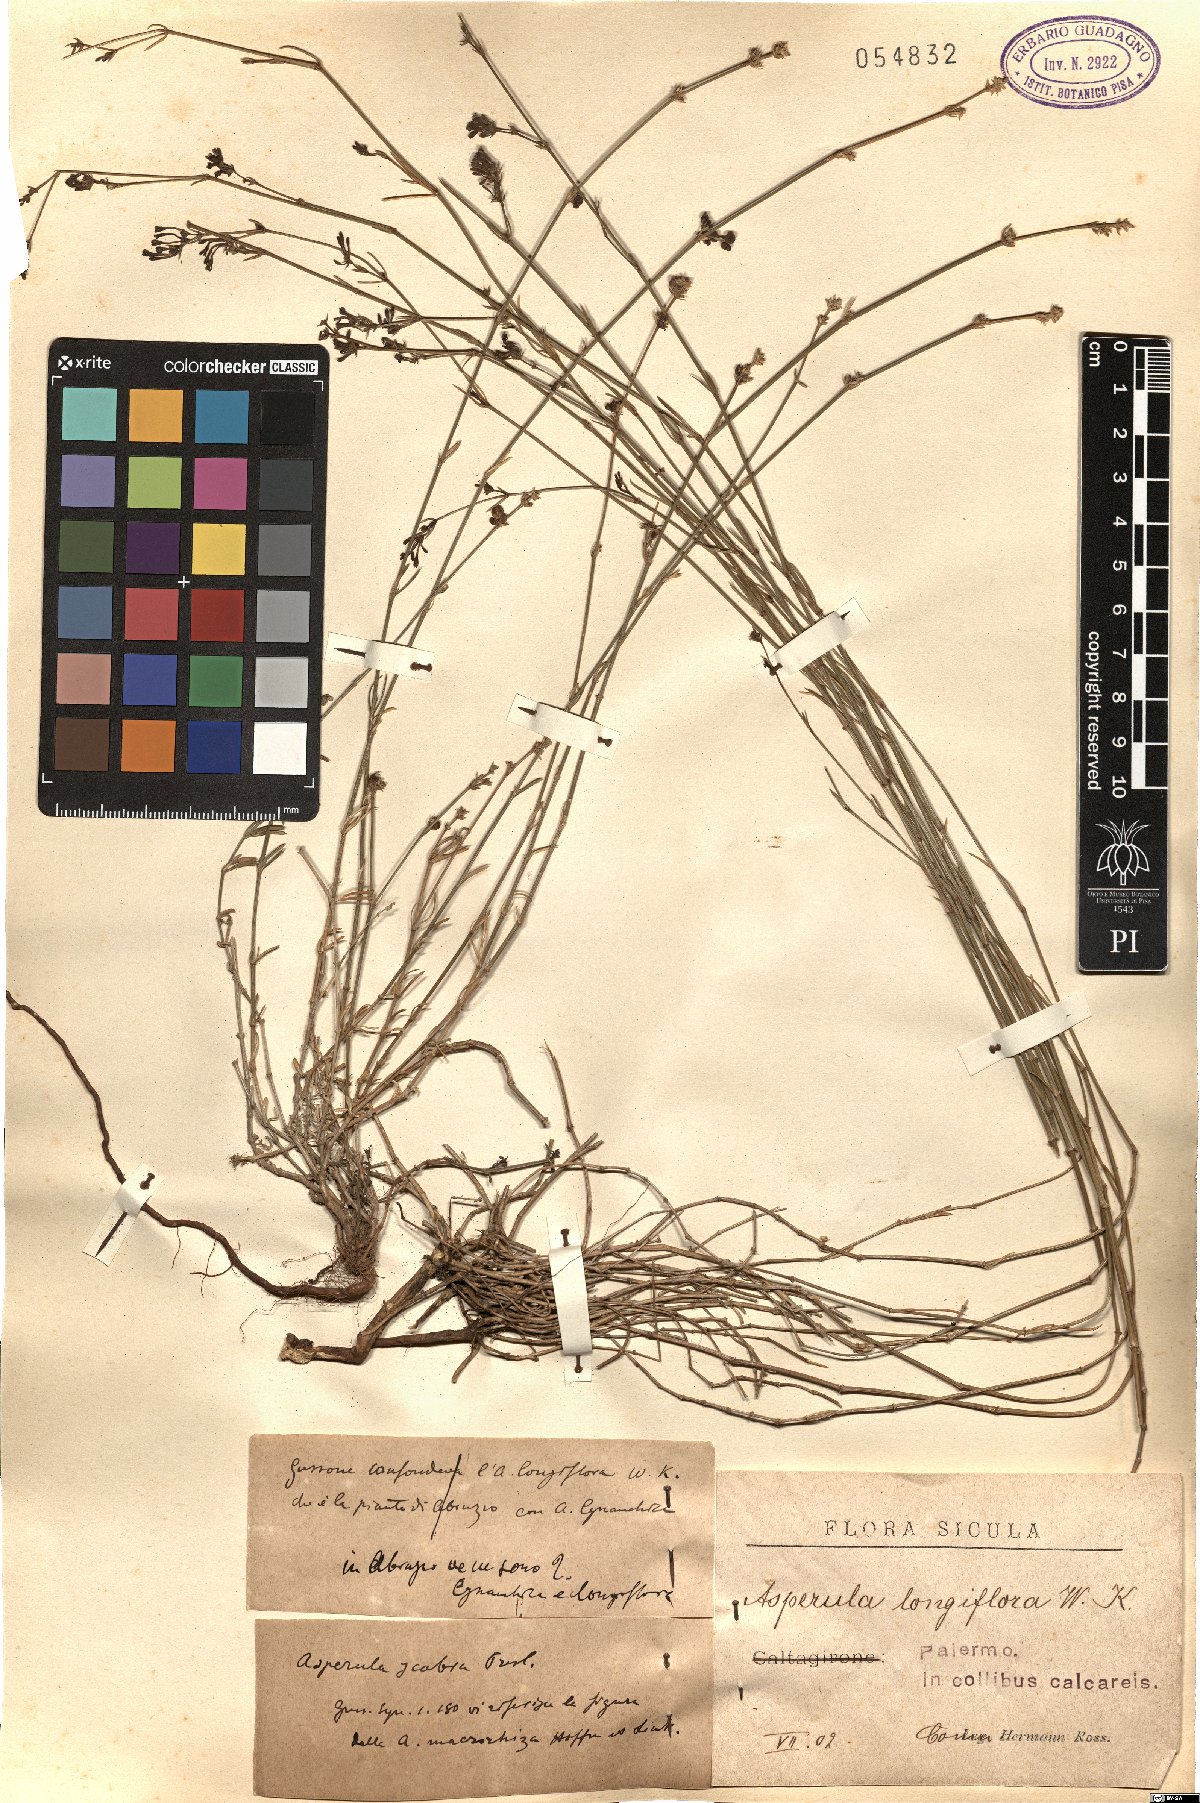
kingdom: Plantae
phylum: Tracheophyta
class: Magnoliopsida
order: Gentianales
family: Rubiaceae
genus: Cynanchica
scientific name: Cynanchica aristata
